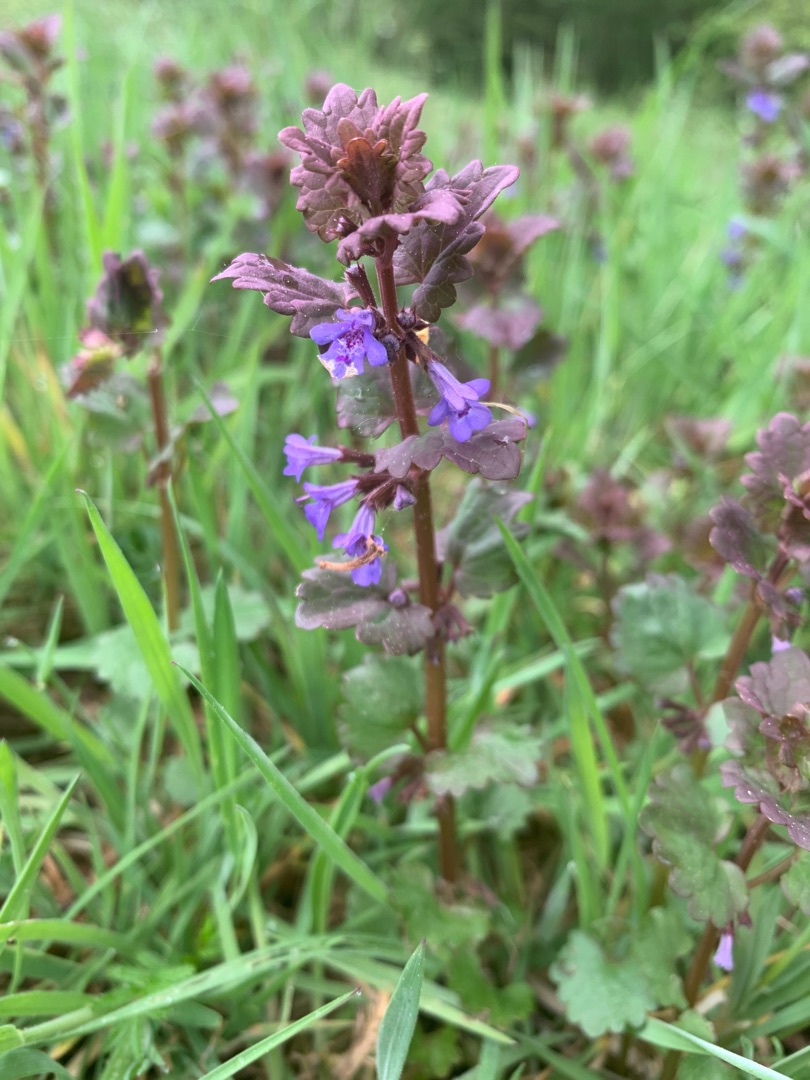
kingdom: Plantae
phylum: Tracheophyta
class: Magnoliopsida
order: Lamiales
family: Lamiaceae
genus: Glechoma
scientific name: Glechoma hederacea
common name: Korsknap
